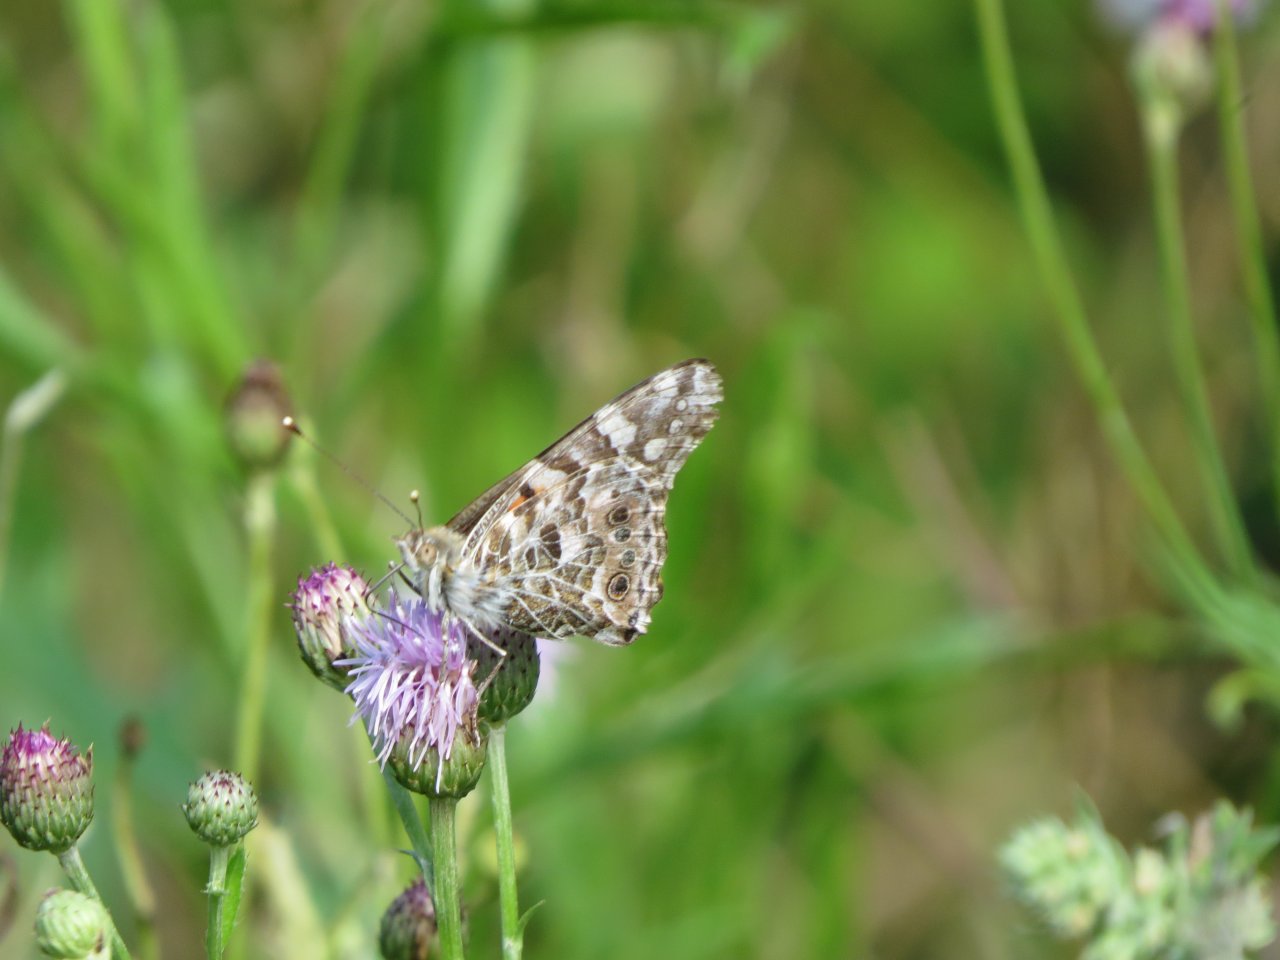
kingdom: Animalia
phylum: Arthropoda
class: Insecta
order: Lepidoptera
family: Nymphalidae
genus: Vanessa
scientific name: Vanessa cardui
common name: Painted Lady
